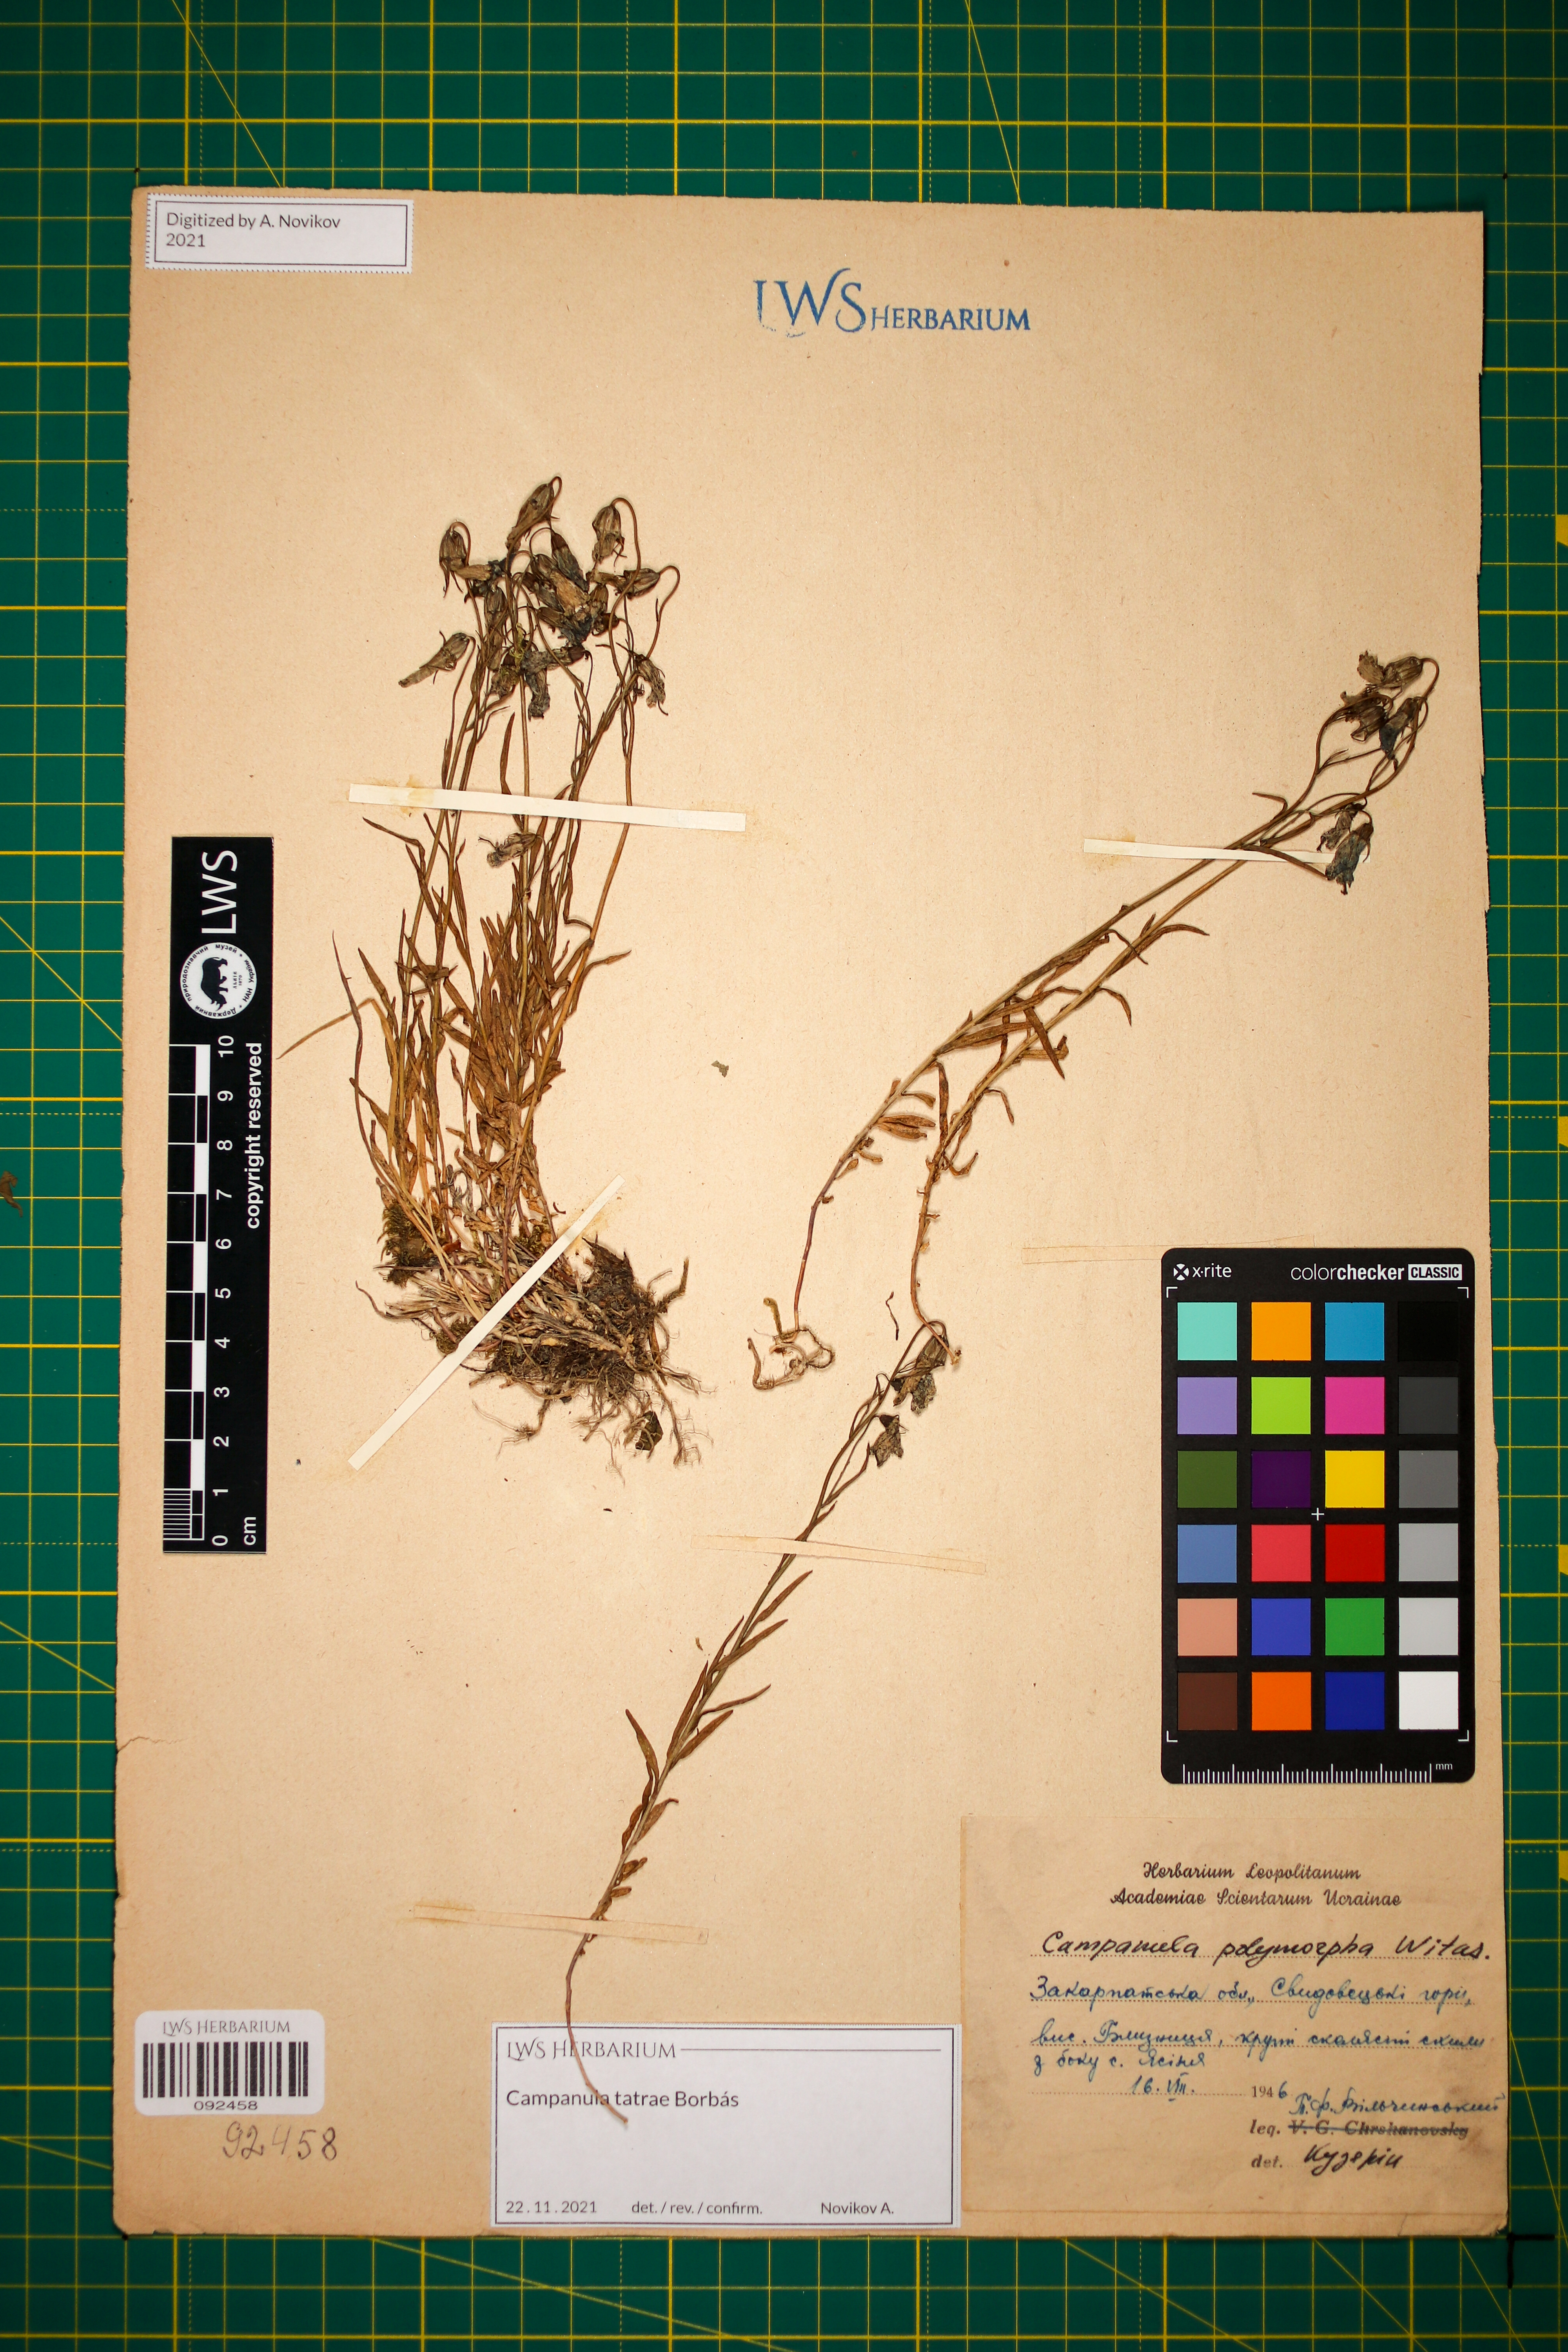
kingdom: Plantae
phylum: Tracheophyta
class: Magnoliopsida
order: Asterales
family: Campanulaceae
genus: Campanula
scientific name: Campanula tatrae
